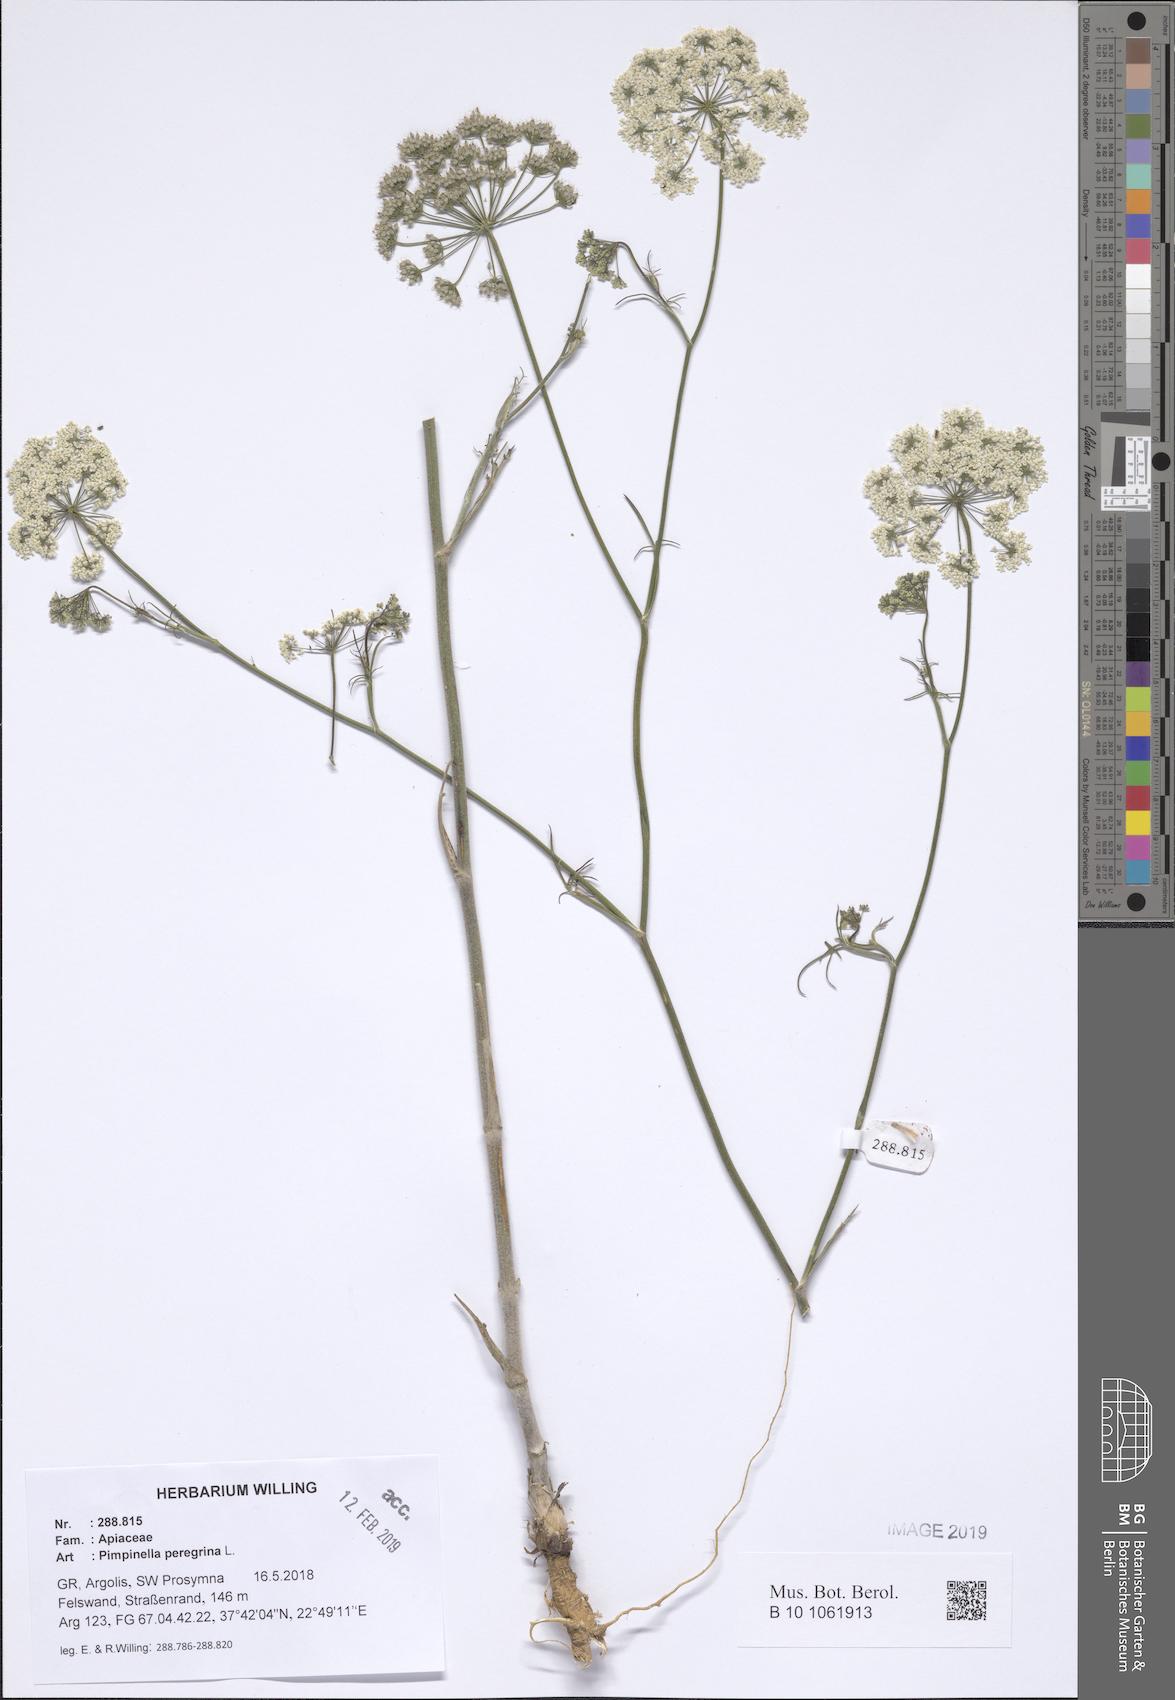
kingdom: Plantae
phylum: Tracheophyta
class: Magnoliopsida
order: Apiales
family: Apiaceae
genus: Pimpinella
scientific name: Pimpinella peregrina
